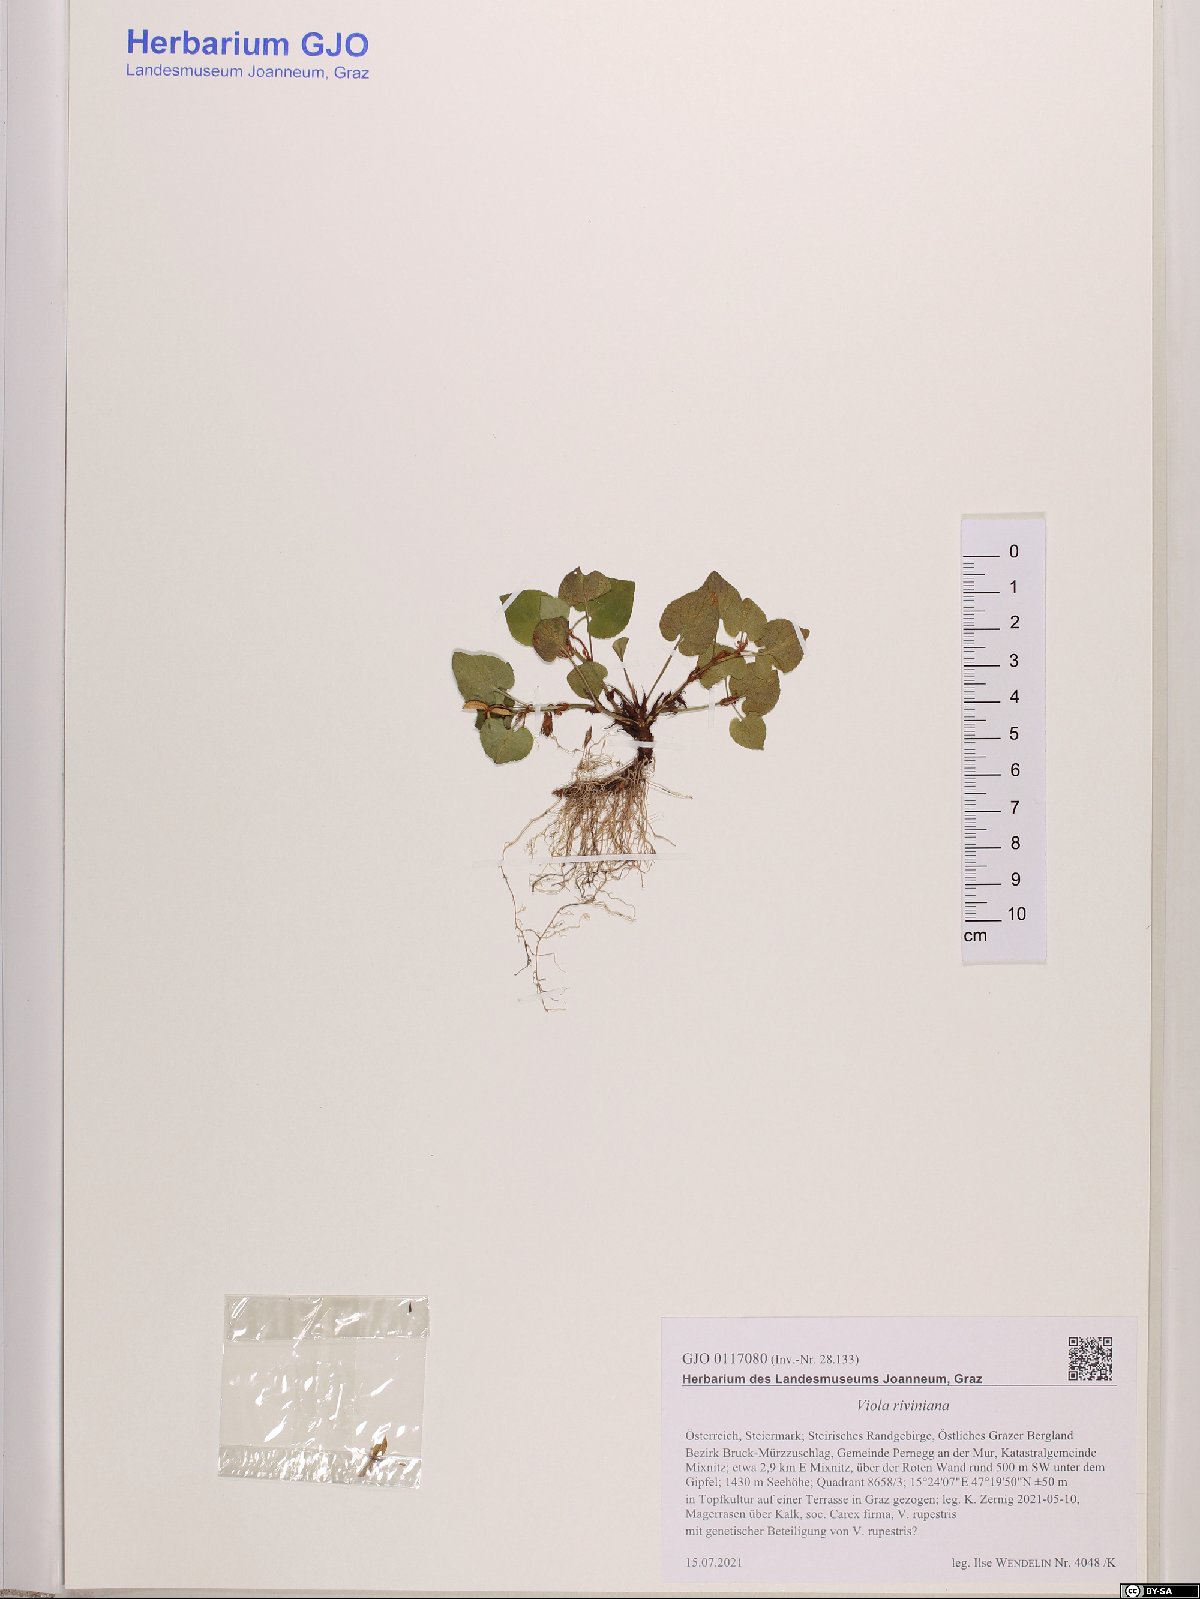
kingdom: Plantae
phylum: Tracheophyta
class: Magnoliopsida
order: Malpighiales
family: Violaceae
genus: Viola
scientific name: Viola riviniana
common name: Common dog-violet
